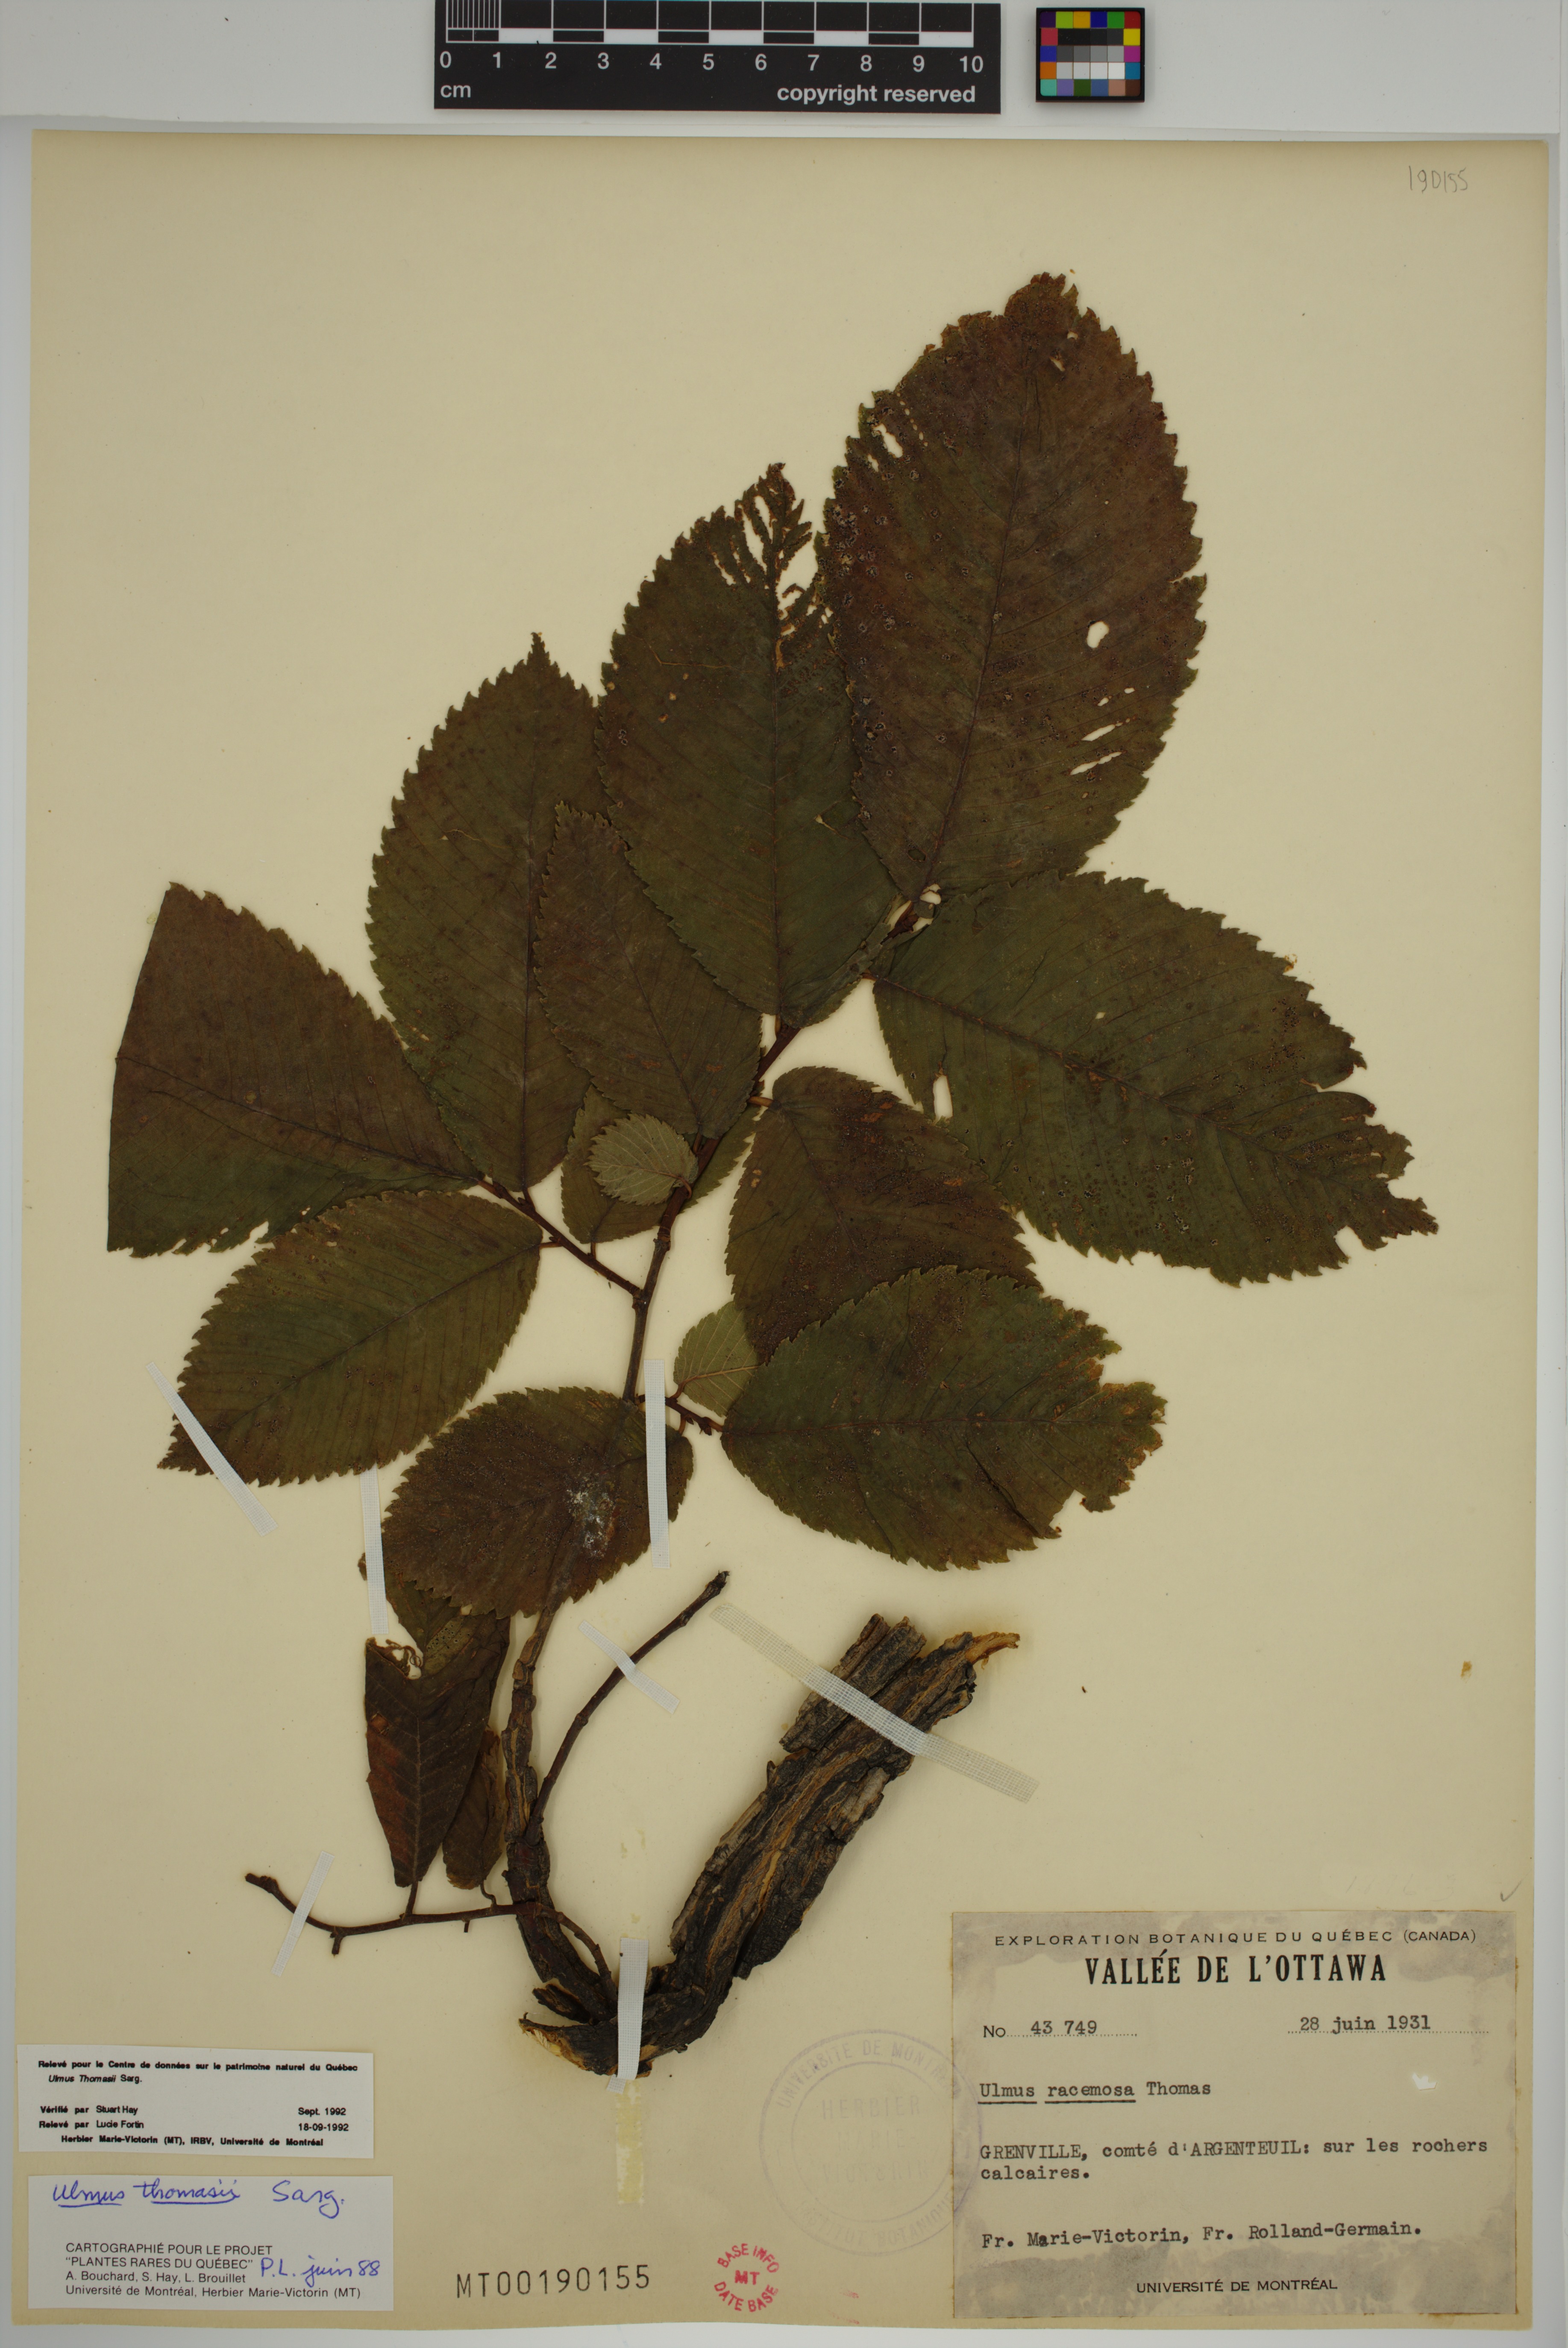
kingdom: Plantae
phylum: Tracheophyta
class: Magnoliopsida
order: Rosales
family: Ulmaceae
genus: Ulmus
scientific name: Ulmus thomasii
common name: Rock elm
